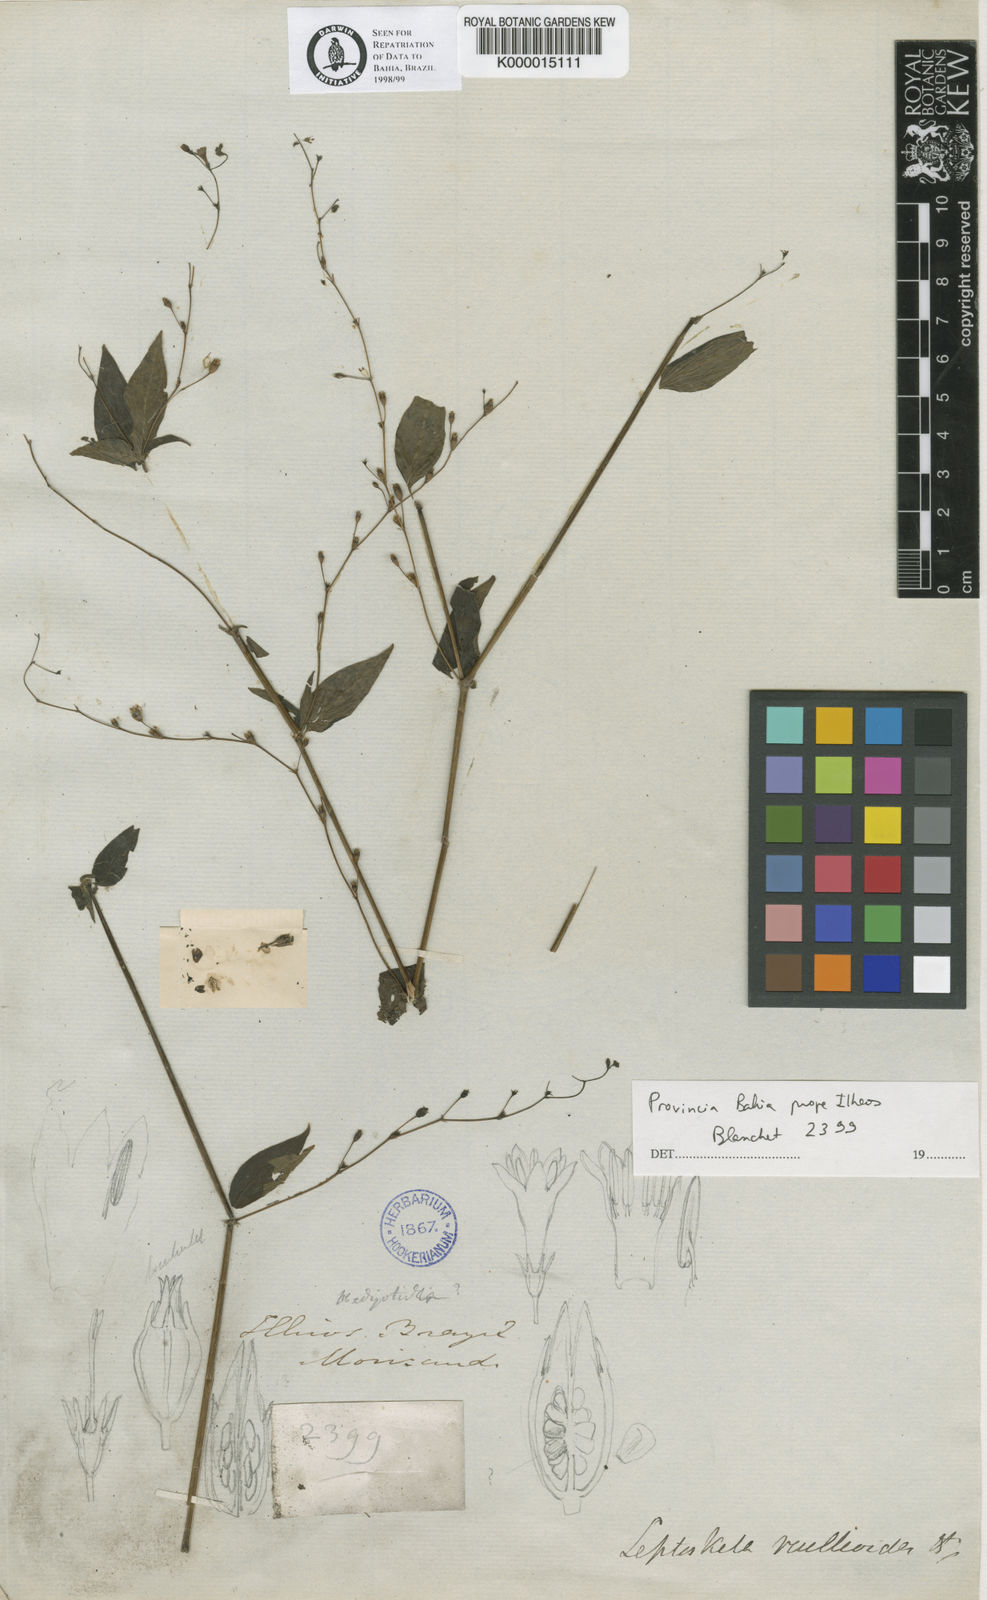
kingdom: Plantae
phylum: Tracheophyta
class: Magnoliopsida
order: Gentianales
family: Rubiaceae
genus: Leptoscela
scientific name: Leptoscela
